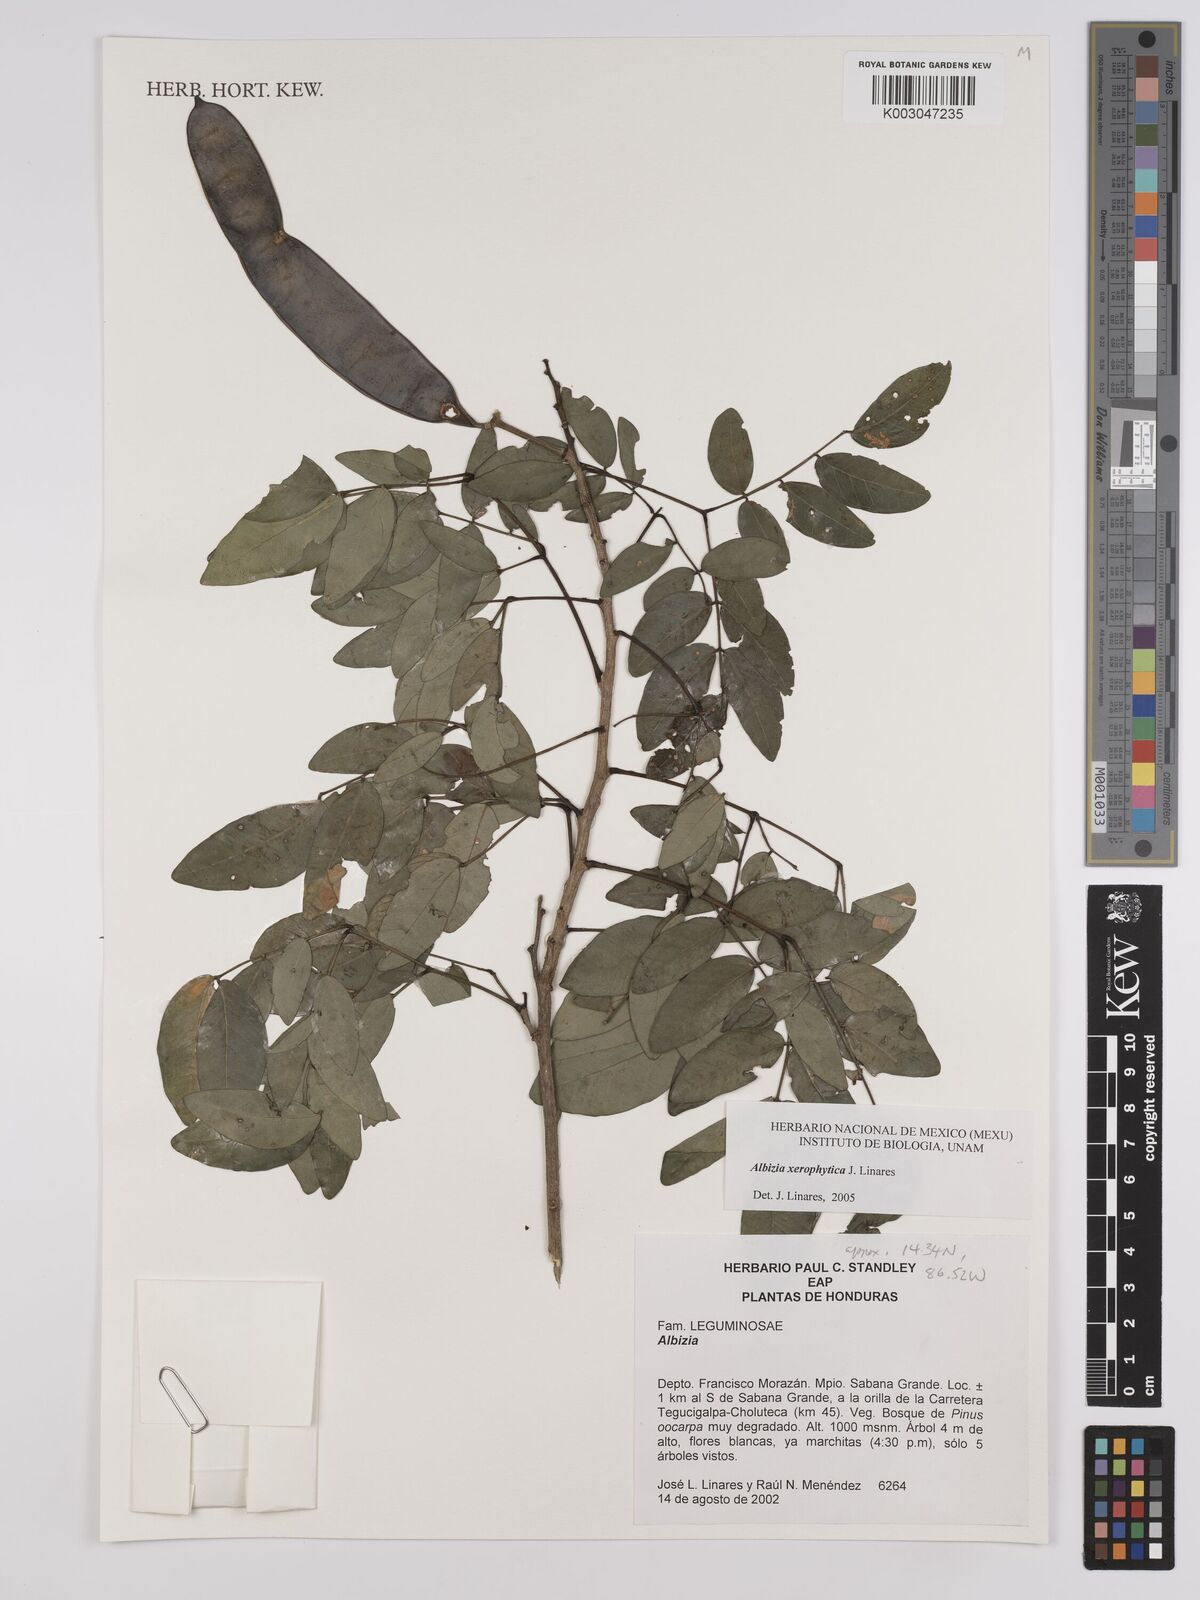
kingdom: Plantae
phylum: Tracheophyta
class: Magnoliopsida
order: Fabales
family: Fabaceae
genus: Albizia
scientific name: Albizia xerophytica
